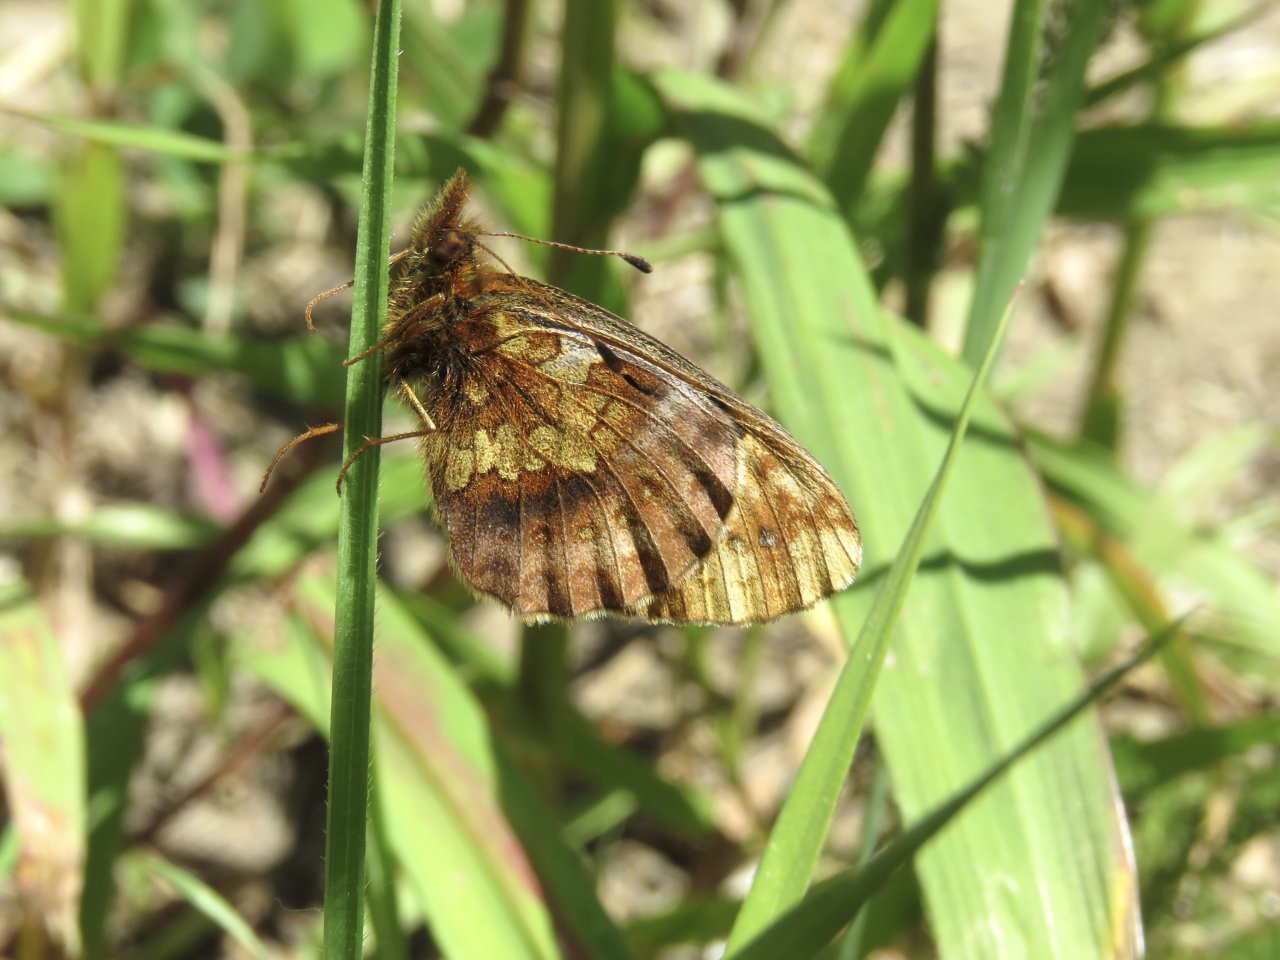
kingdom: Animalia
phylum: Arthropoda
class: Insecta
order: Lepidoptera
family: Nymphalidae
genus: Boloria
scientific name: Boloria epithore
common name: Pacific Fritillary
